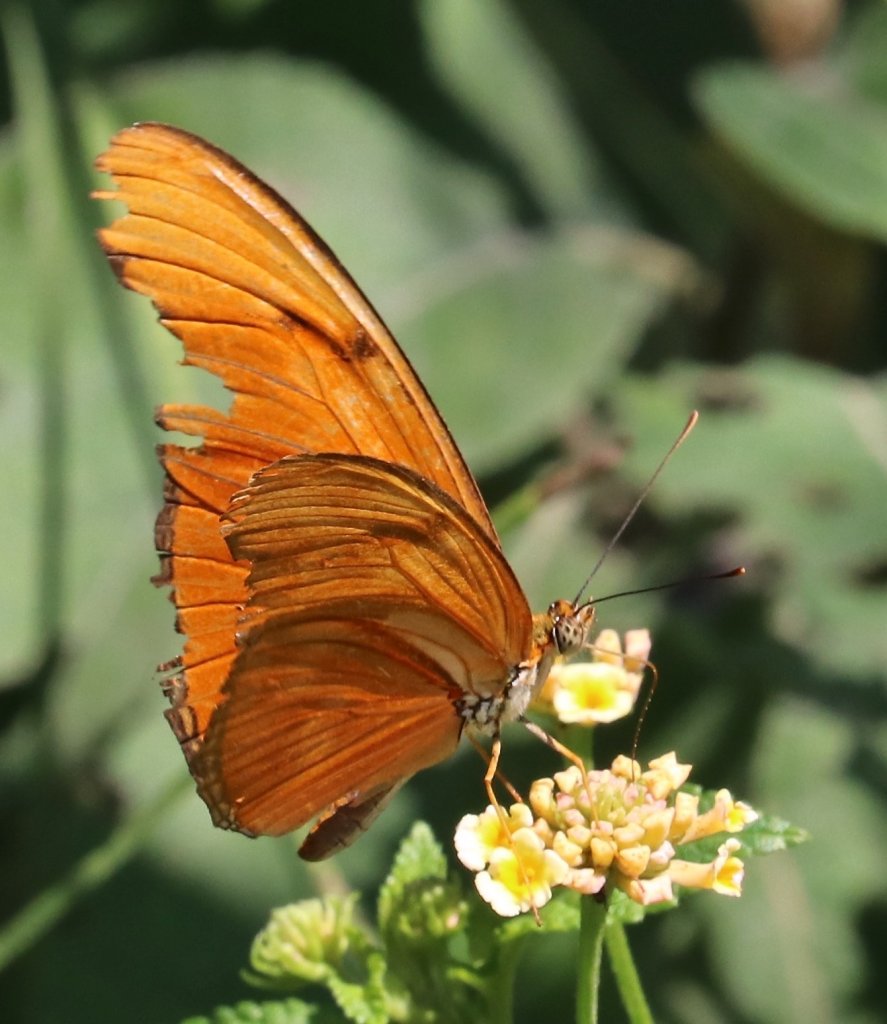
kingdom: Animalia
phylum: Arthropoda
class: Insecta
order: Lepidoptera
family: Nymphalidae
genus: Dryas
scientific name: Dryas iulia
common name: Julia
